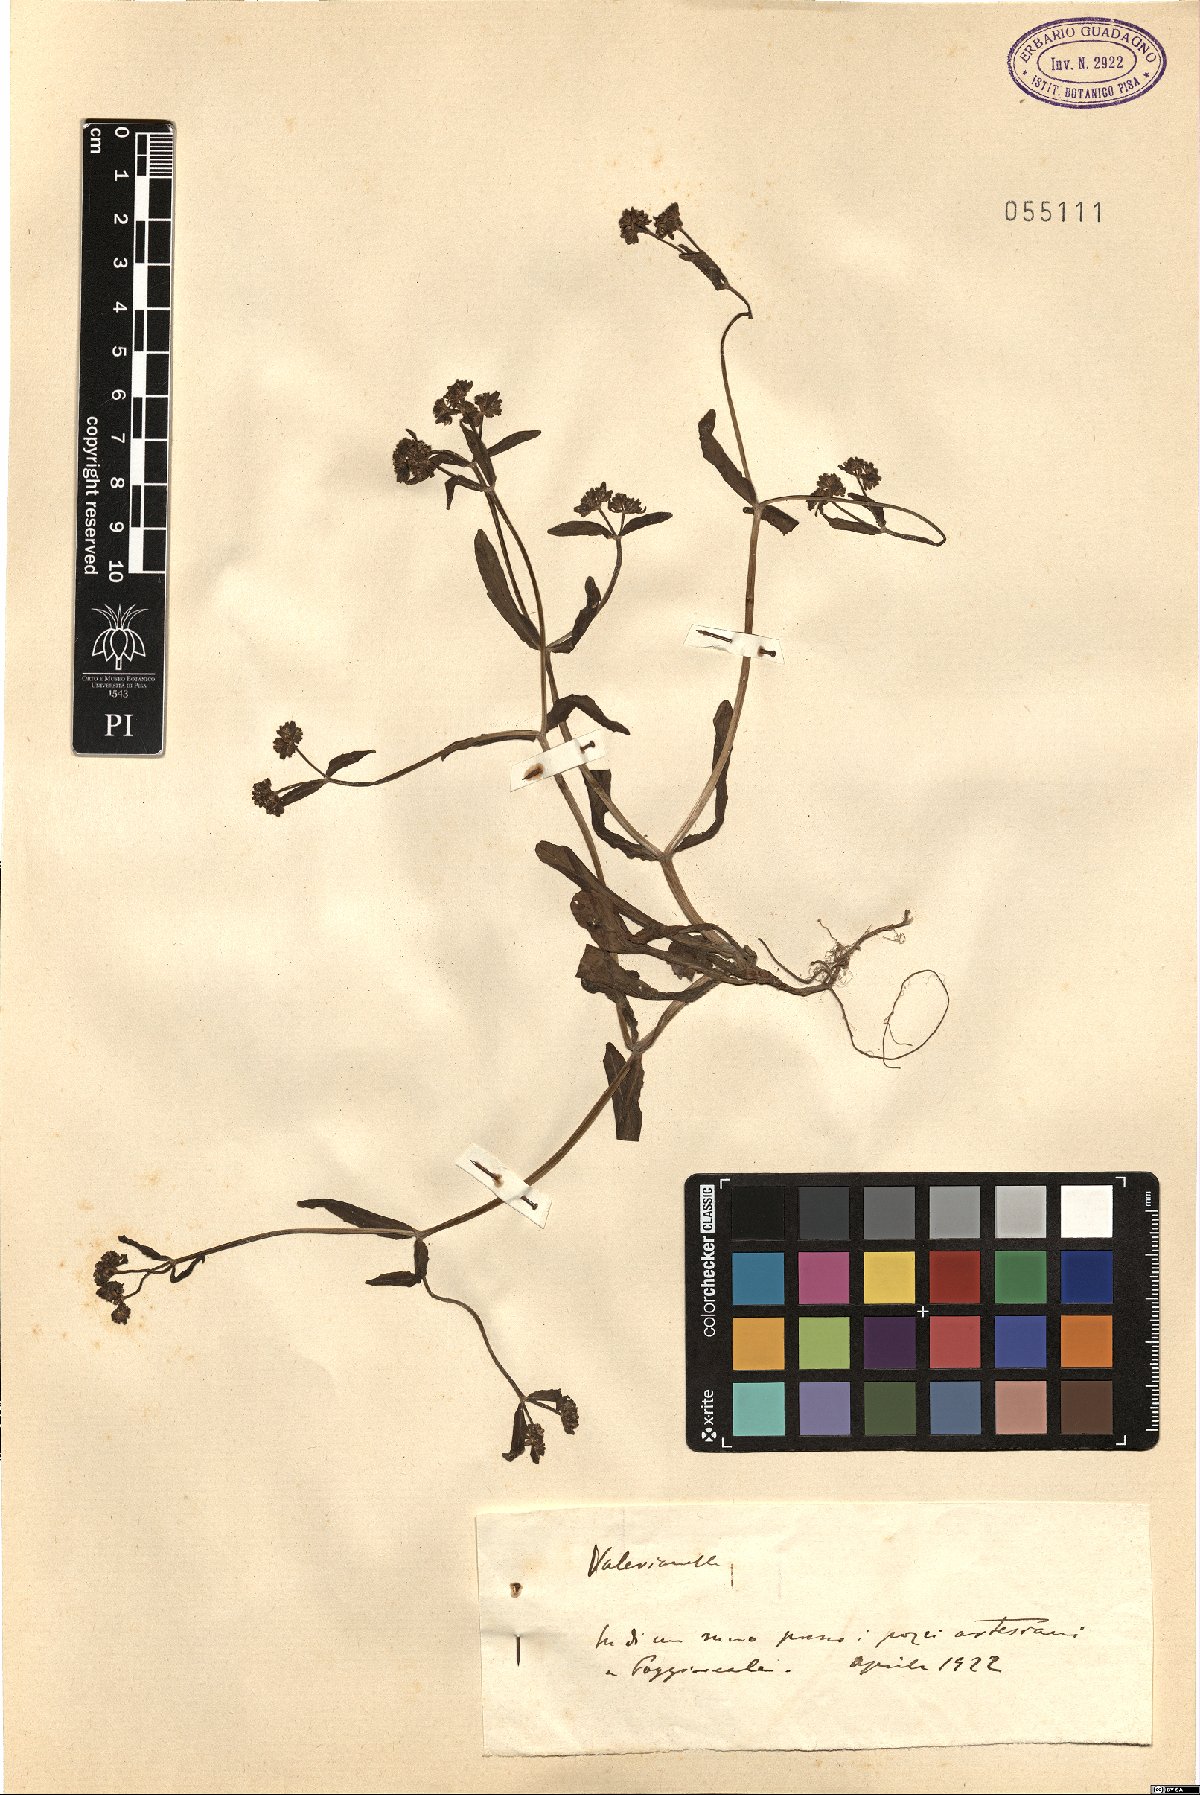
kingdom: Plantae
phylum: Tracheophyta
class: Magnoliopsida
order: Dipsacales
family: Caprifoliaceae
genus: Valerianella
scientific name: Valerianella
